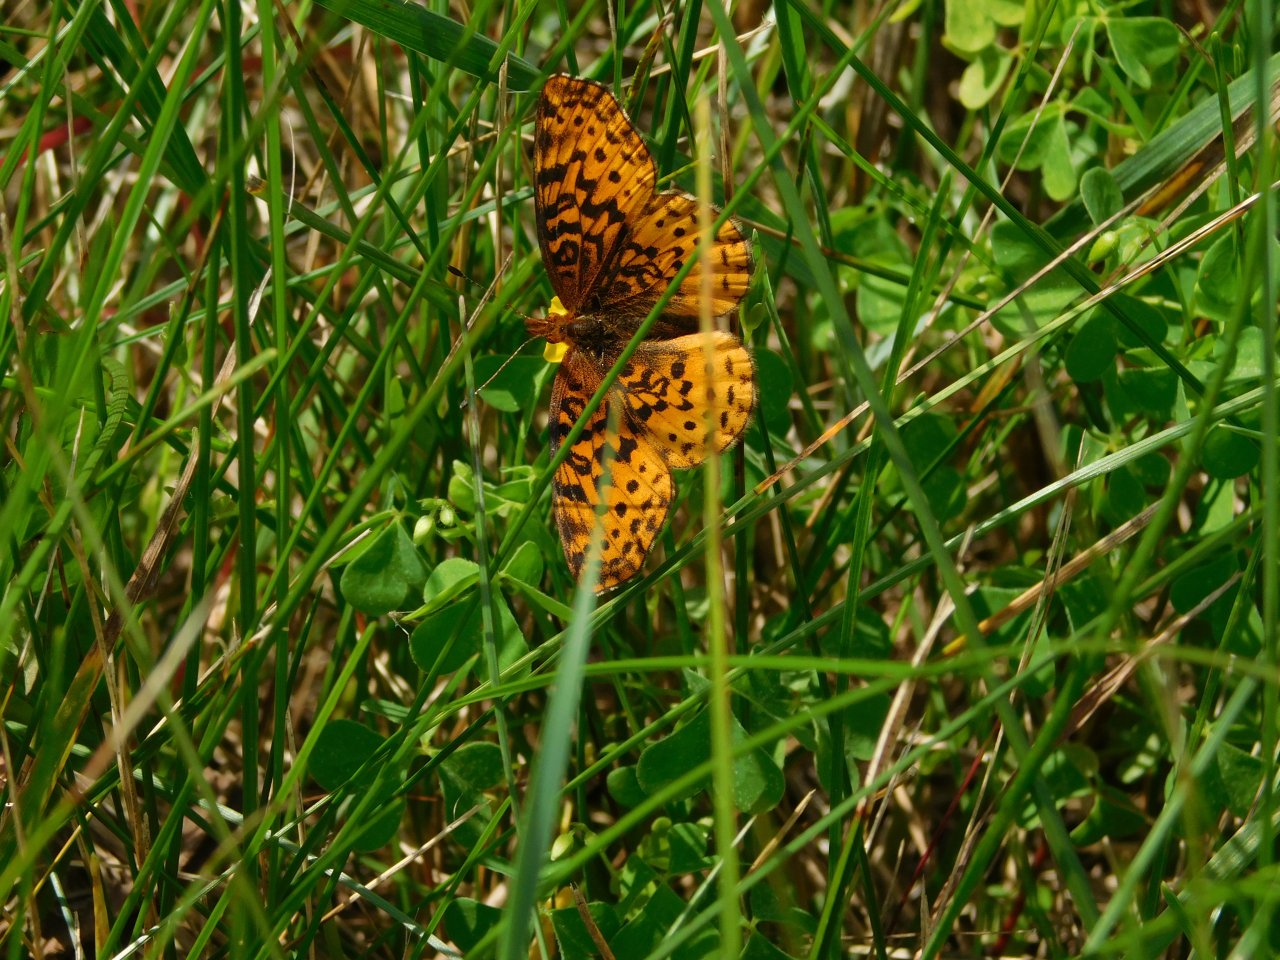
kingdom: Animalia
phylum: Arthropoda
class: Insecta
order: Lepidoptera
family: Nymphalidae
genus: Clossiana
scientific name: Clossiana toddi
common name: Meadow Fritillary
